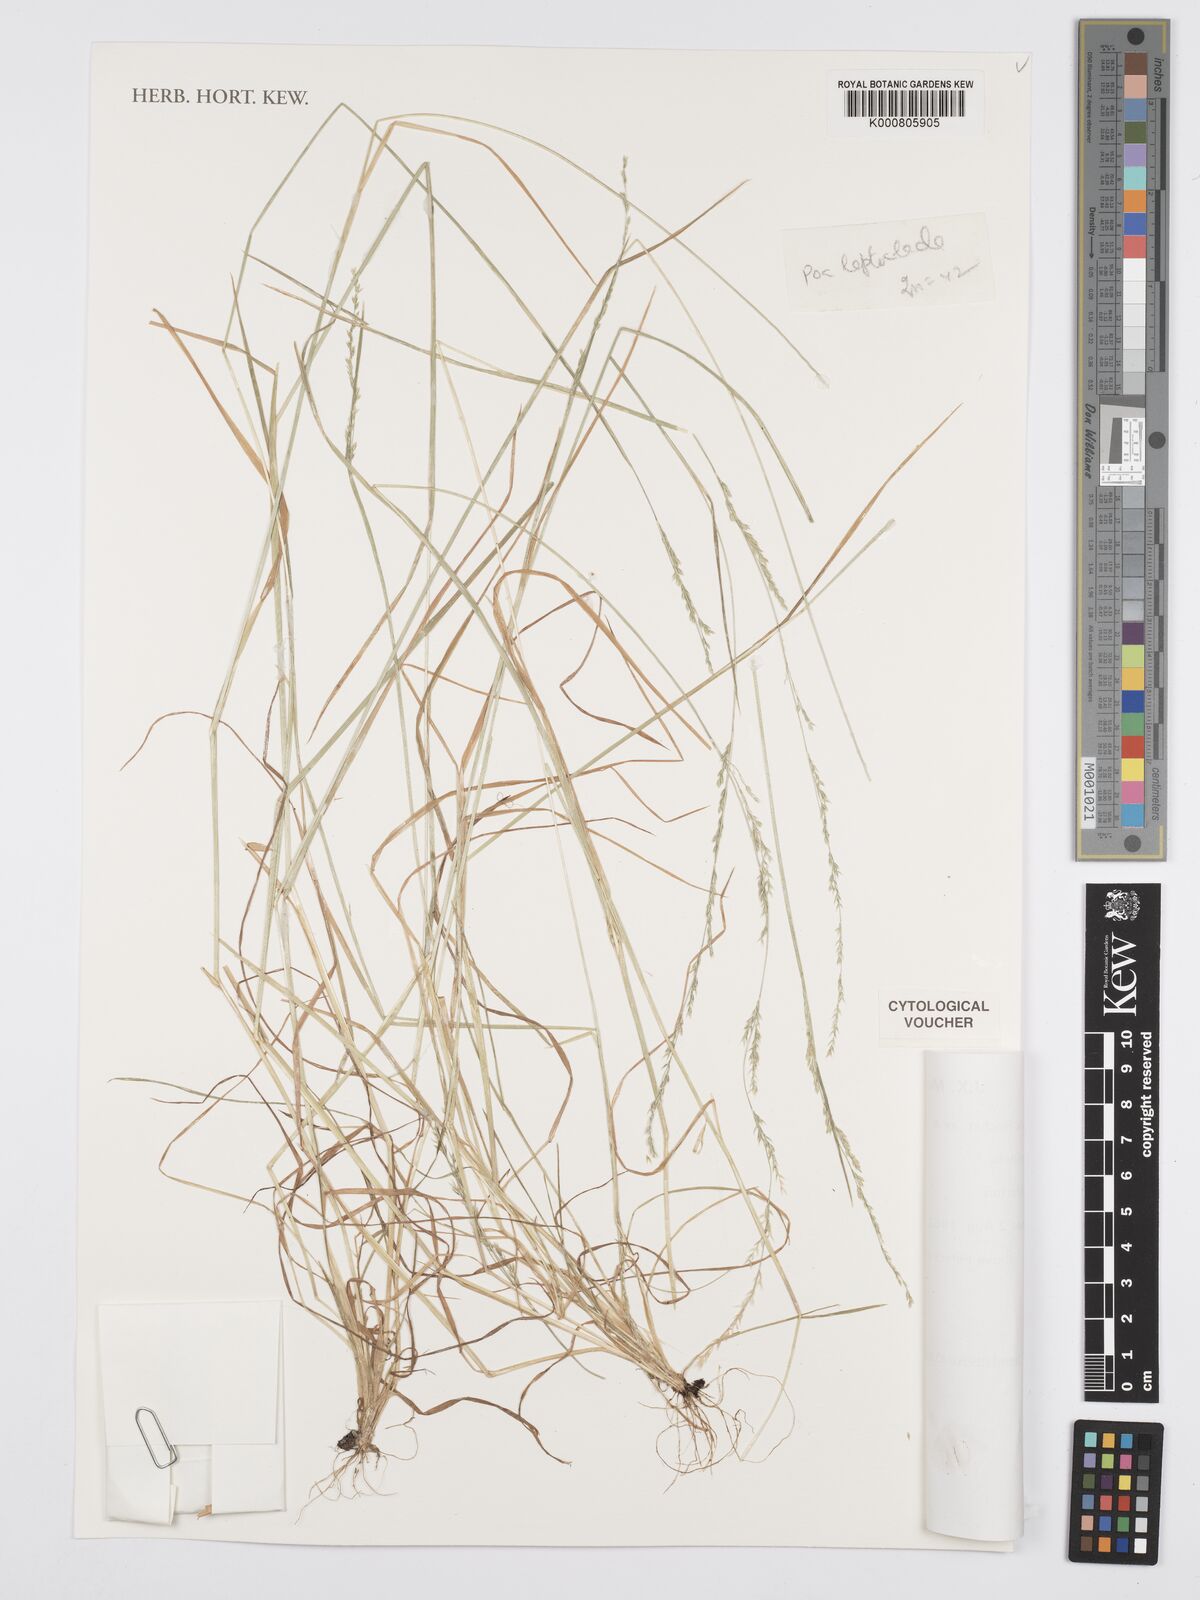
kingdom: Plantae
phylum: Tracheophyta
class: Liliopsida
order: Poales
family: Poaceae
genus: Poa
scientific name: Poa leptoclada
